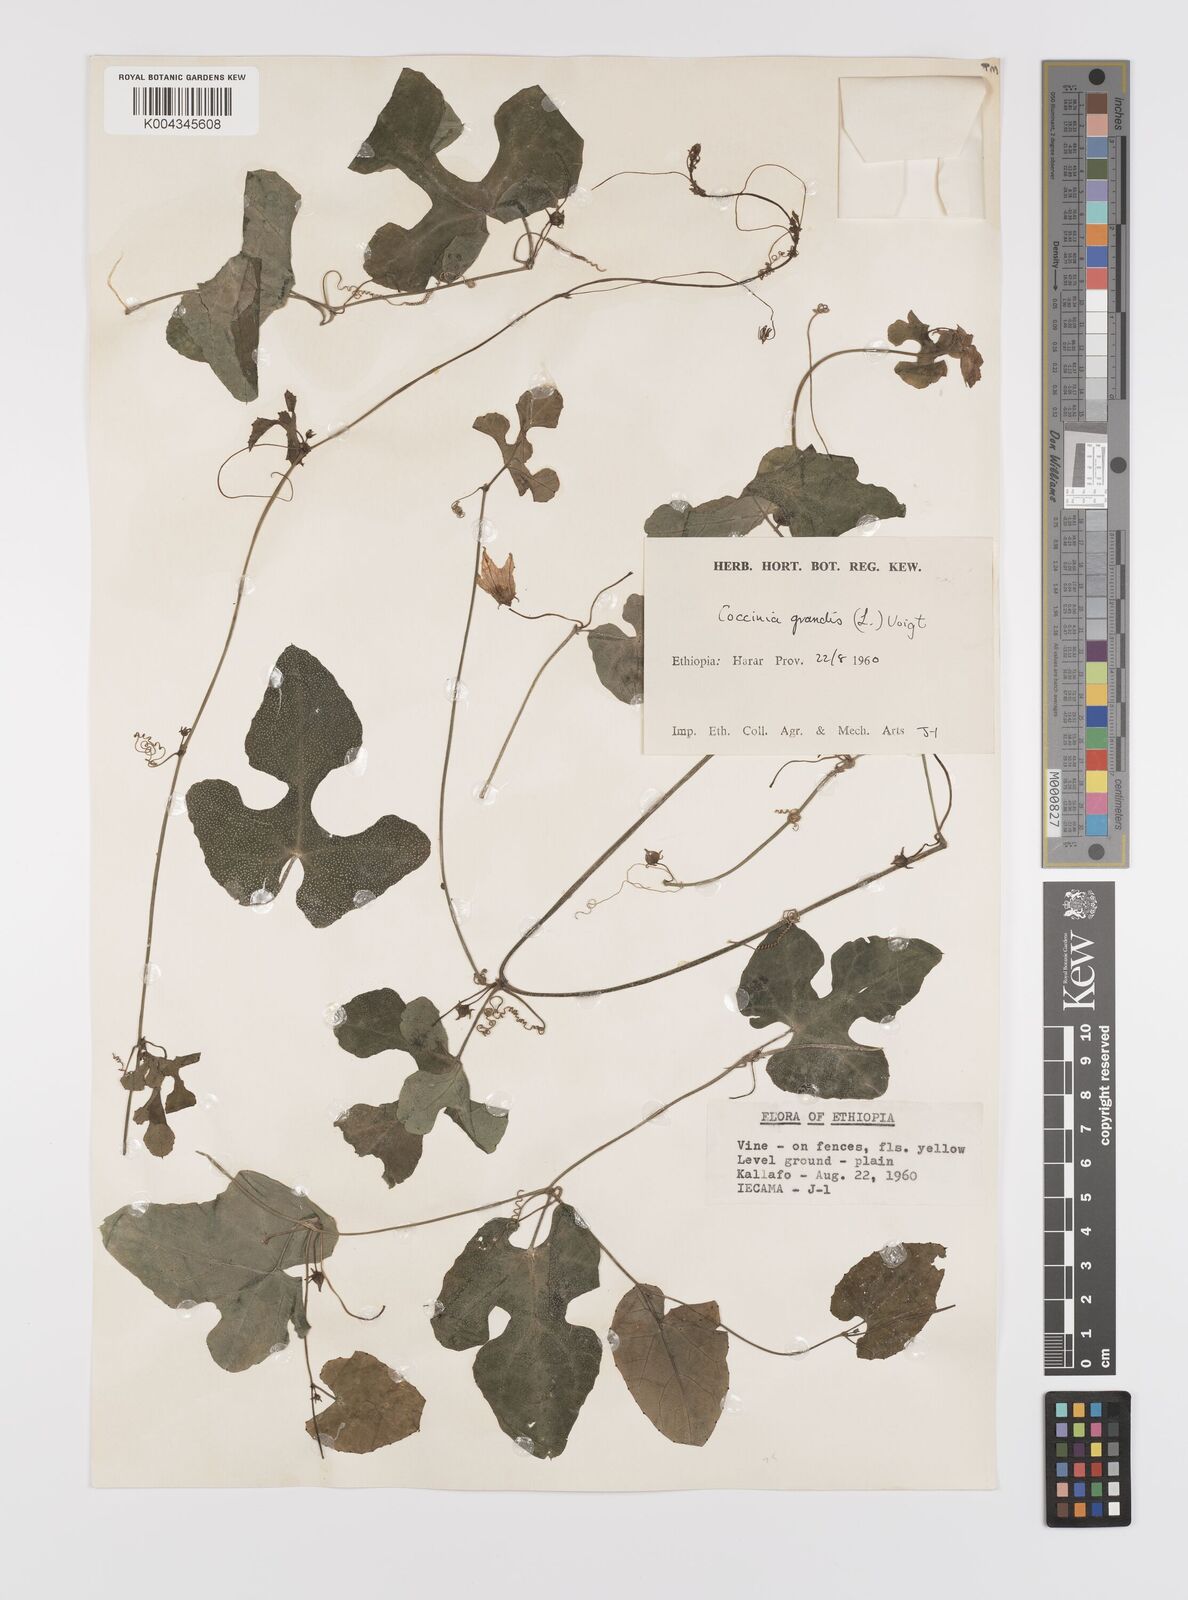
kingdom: Plantae
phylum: Tracheophyta
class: Magnoliopsida
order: Cucurbitales
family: Cucurbitaceae
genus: Coccinia
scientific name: Coccinia grandis
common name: Ivy gourd
